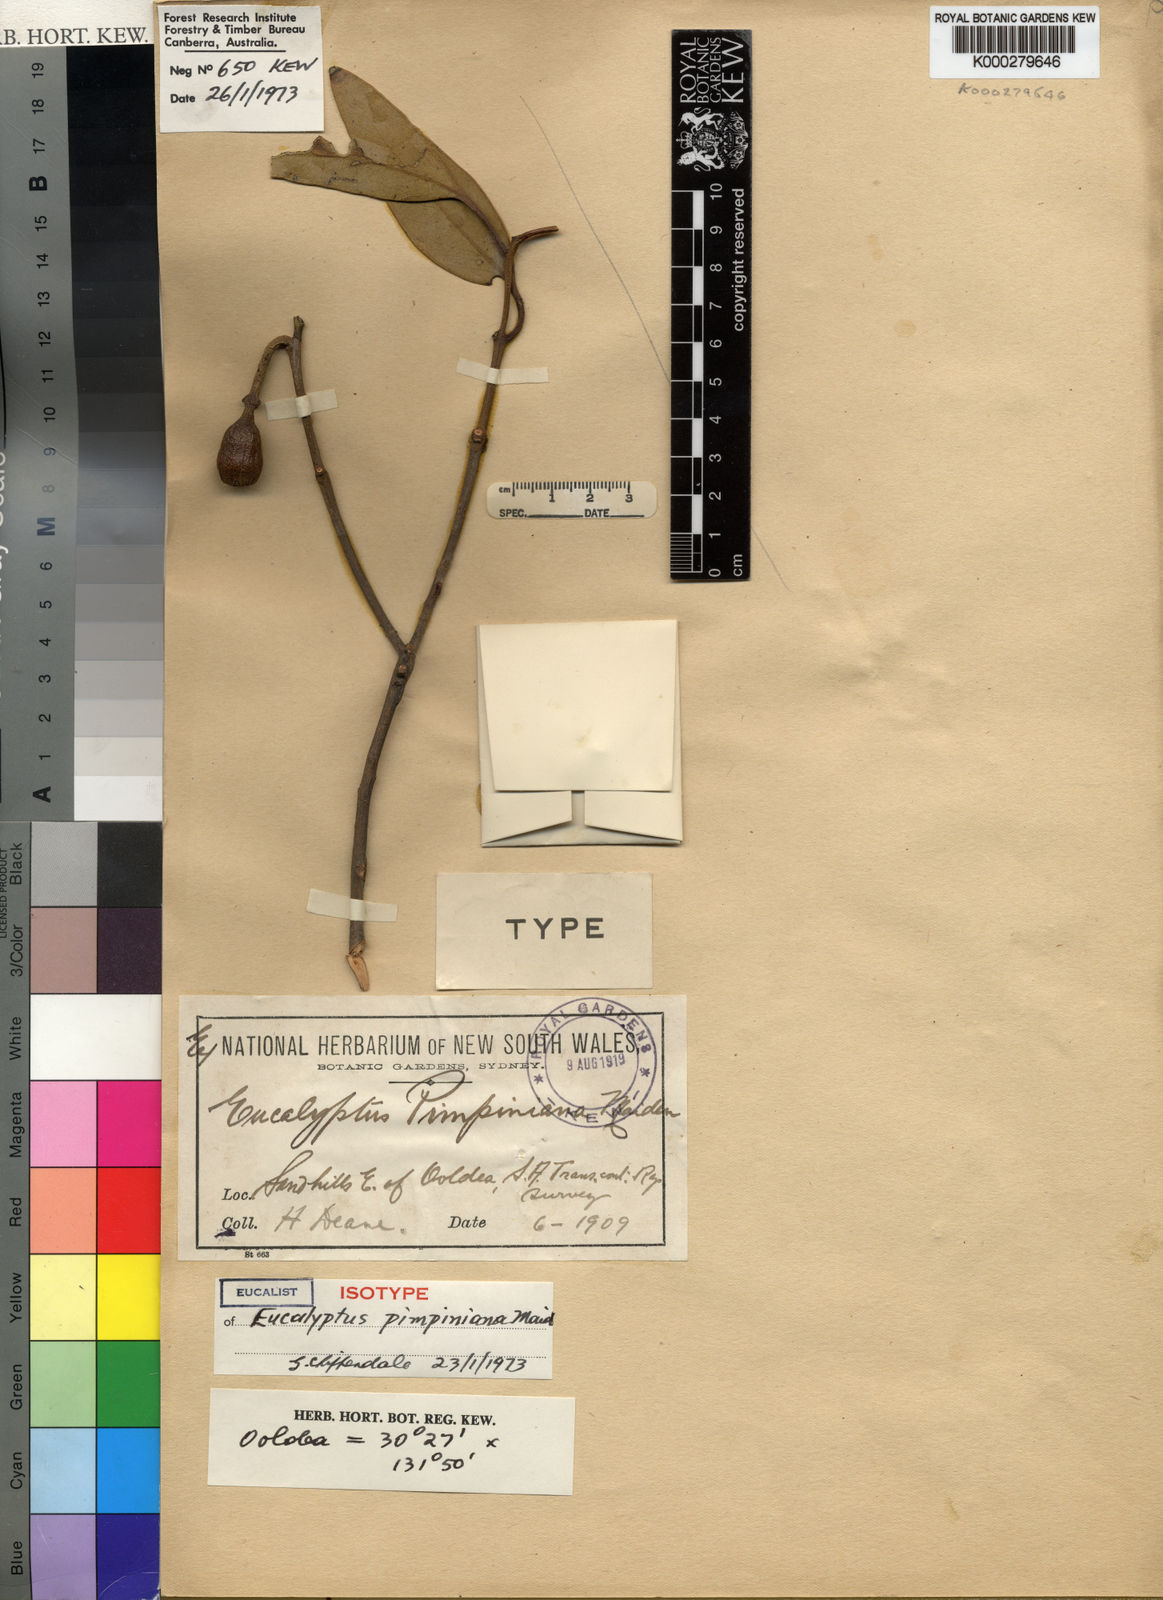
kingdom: Plantae
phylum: Tracheophyta
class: Magnoliopsida
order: Myrtales
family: Myrtaceae
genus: Eucalyptus
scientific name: Eucalyptus pimpiniana
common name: Pimpin mallee
